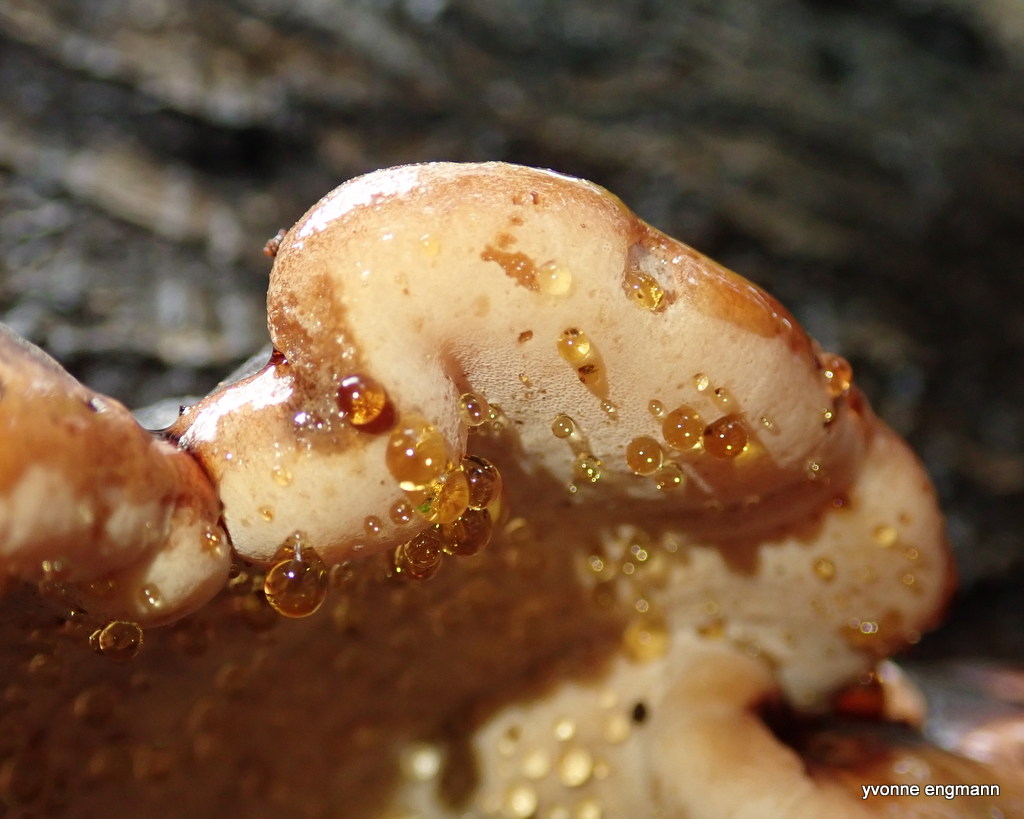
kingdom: Fungi
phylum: Basidiomycota
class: Agaricomycetes
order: Polyporales
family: Ischnodermataceae
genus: Ischnoderma
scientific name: Ischnoderma resinosum
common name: løv-tjæreporesvamp
